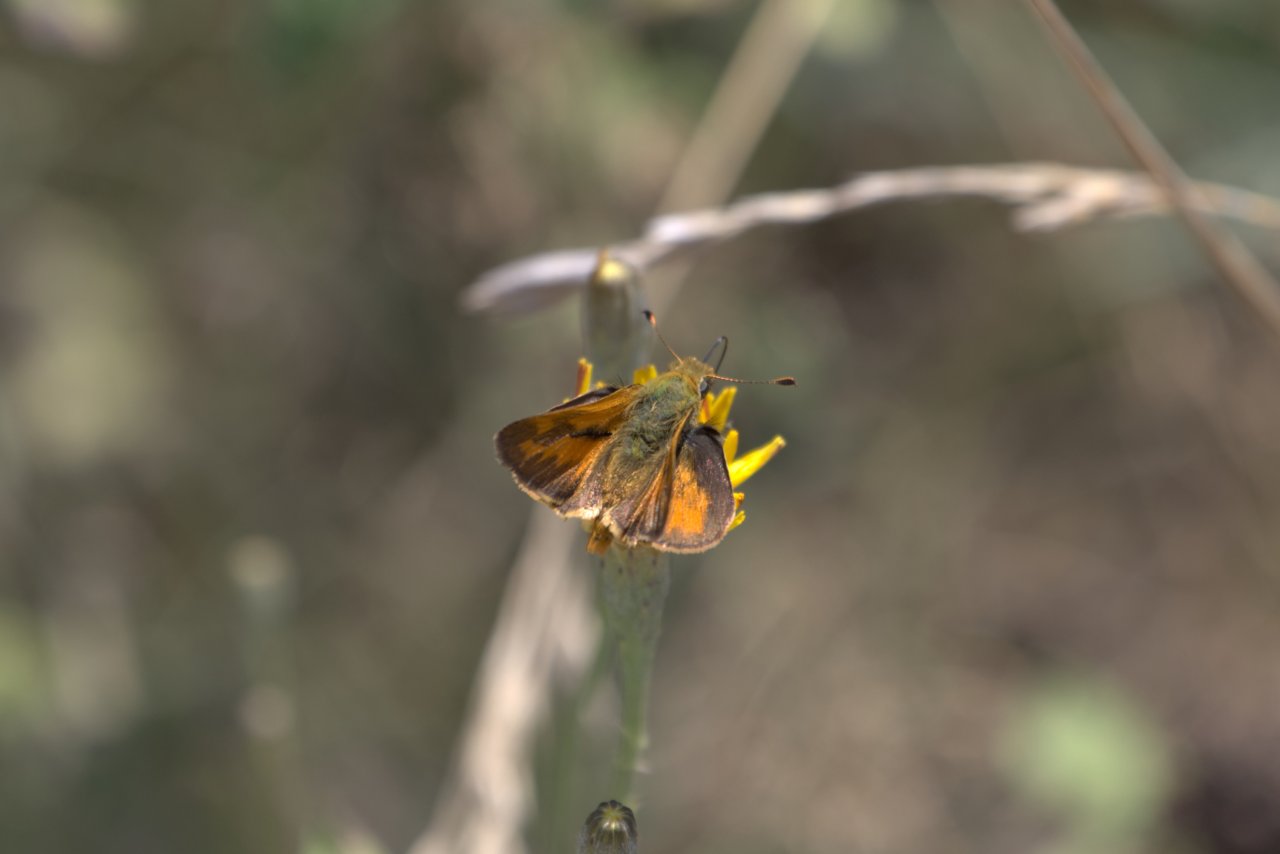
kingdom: Animalia
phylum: Arthropoda
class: Insecta
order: Lepidoptera
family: Hesperiidae
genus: Ochlodes
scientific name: Ochlodes sylvanoides
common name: Woodland Skipper
